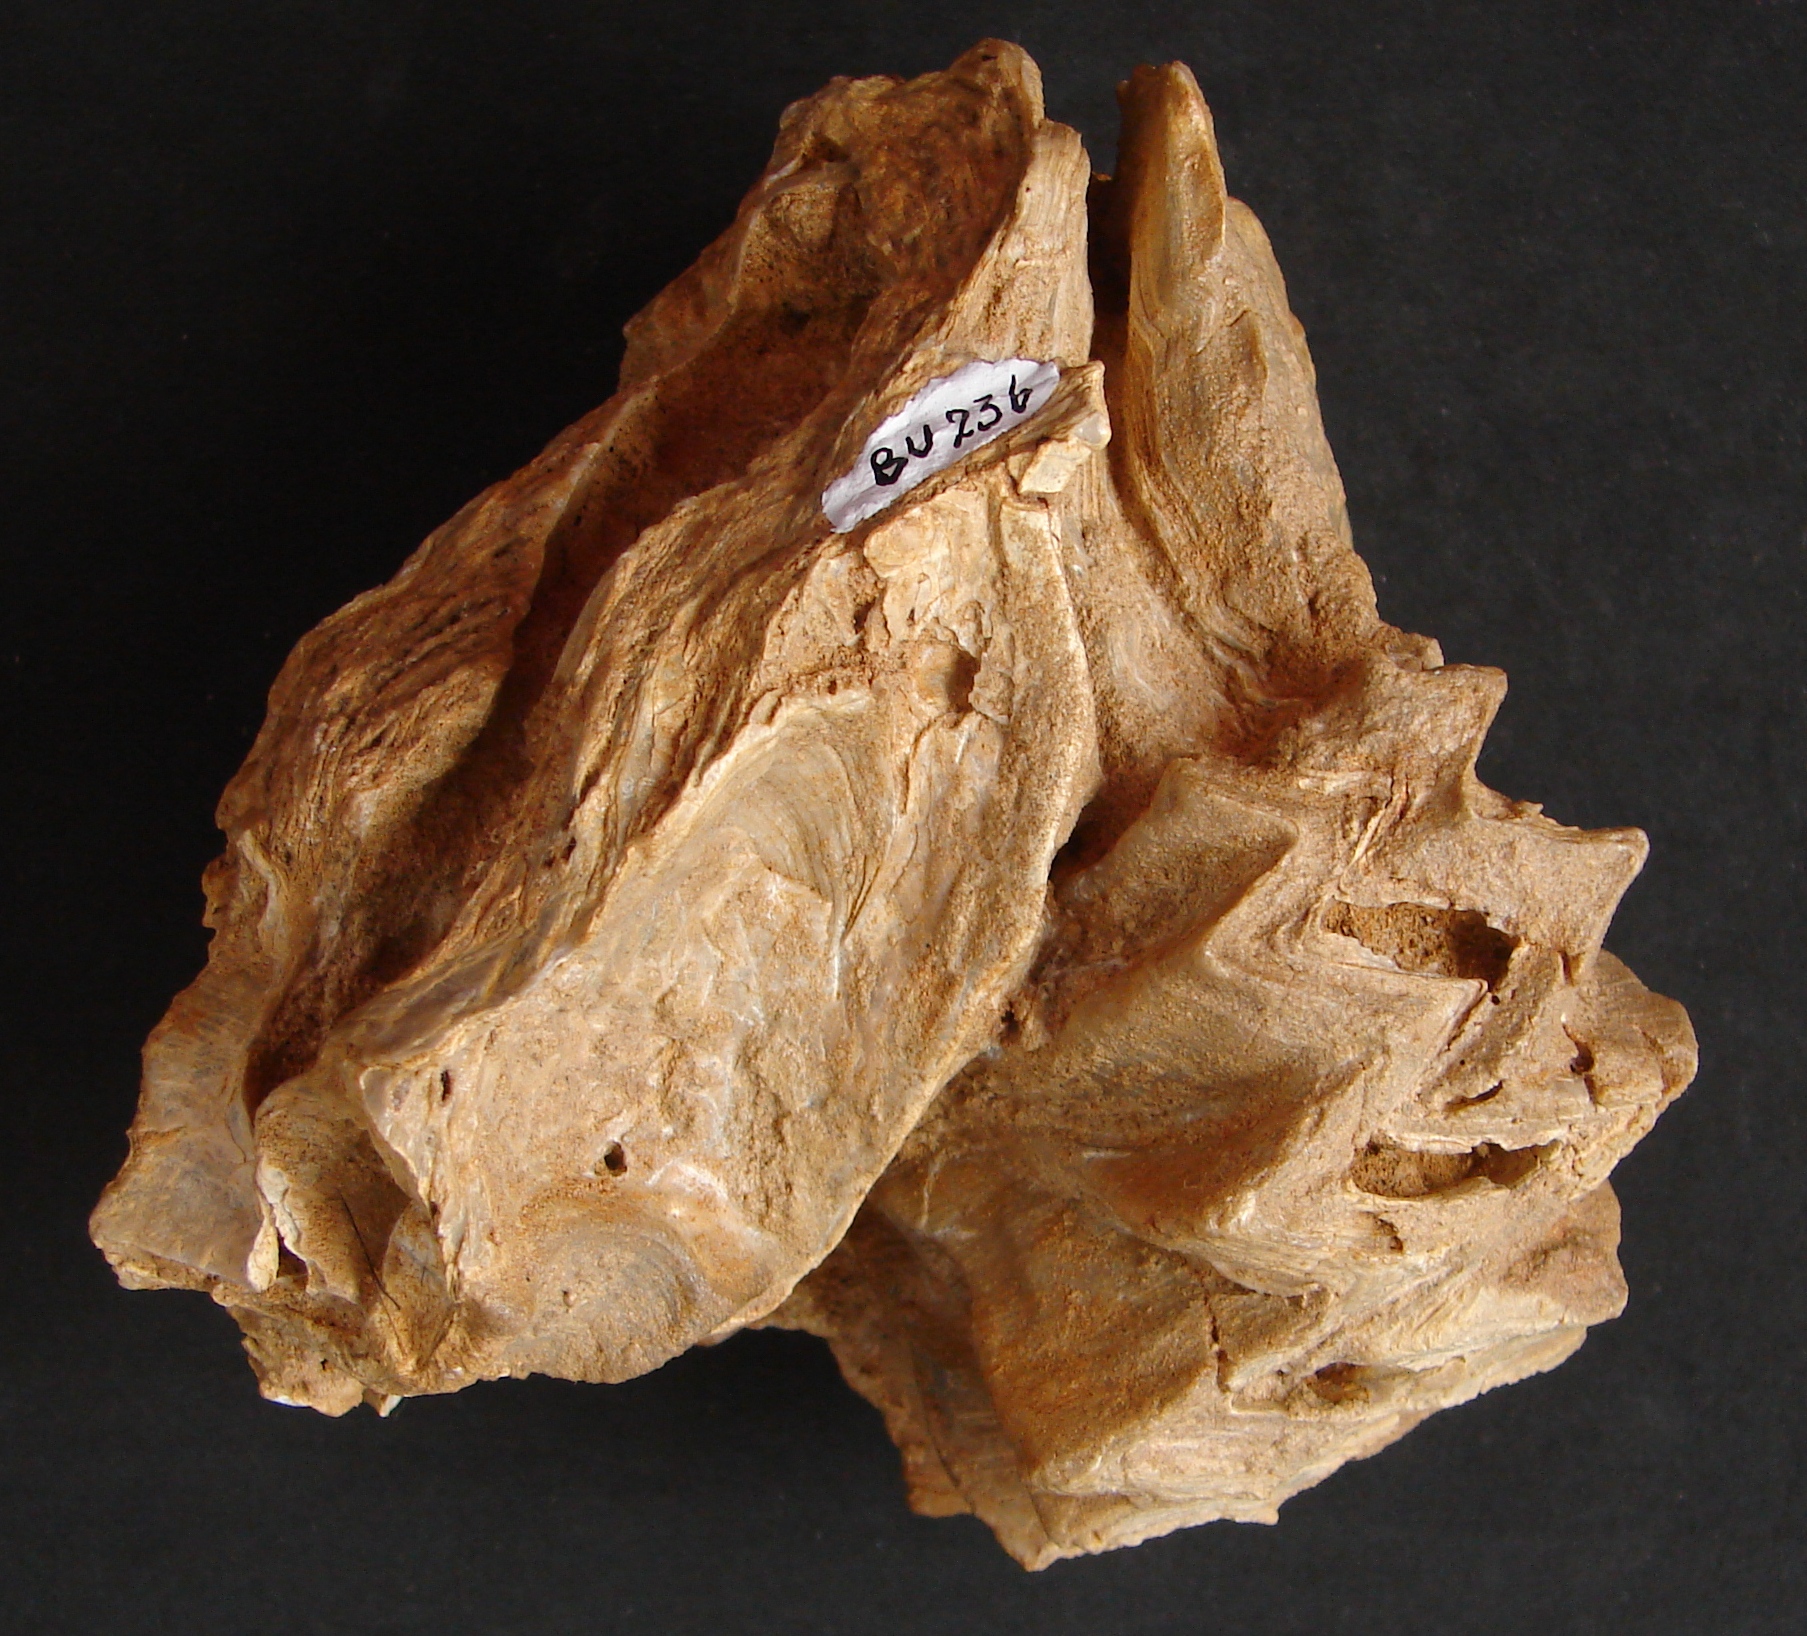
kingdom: Animalia
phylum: Mollusca
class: Bivalvia
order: Ostreida
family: Ostreidae
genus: Ostrea
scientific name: Ostrea marshii
